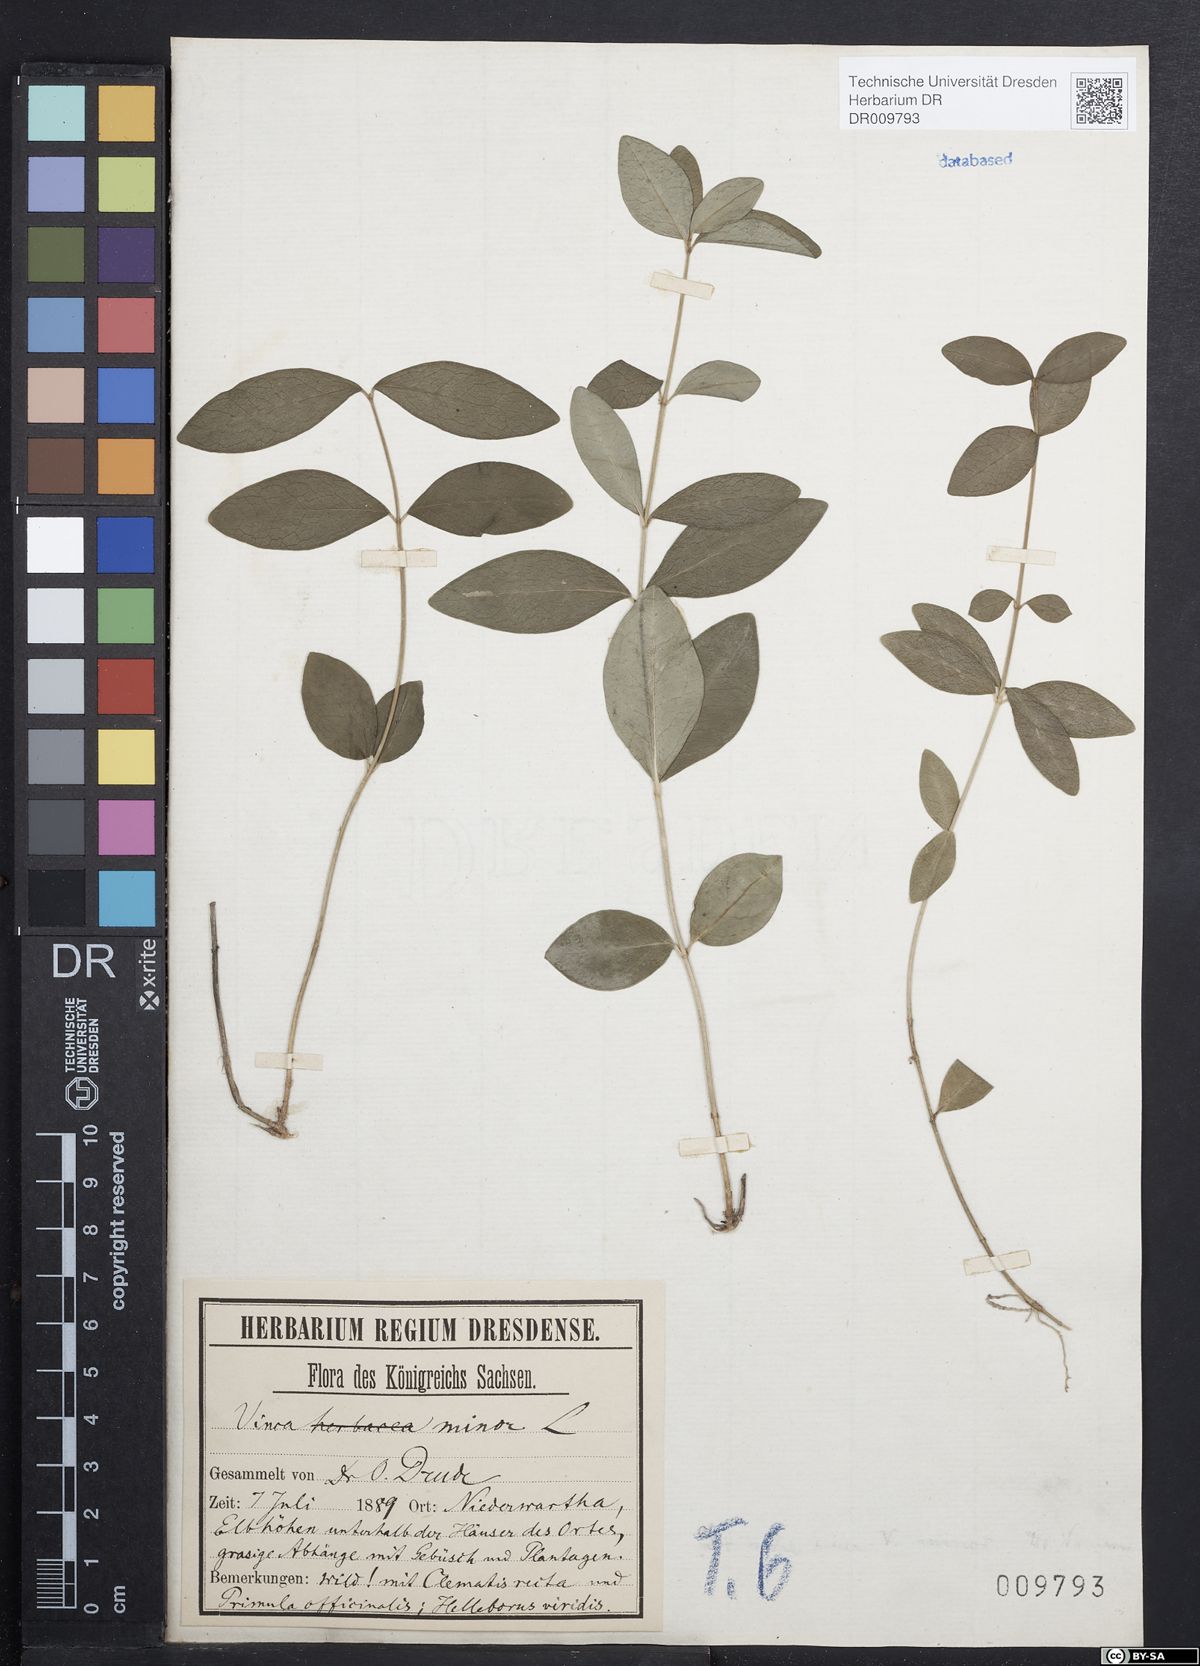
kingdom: Plantae
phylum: Tracheophyta
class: Magnoliopsida
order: Gentianales
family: Apocynaceae
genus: Vinca
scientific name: Vinca minor
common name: Lesser periwinkle
